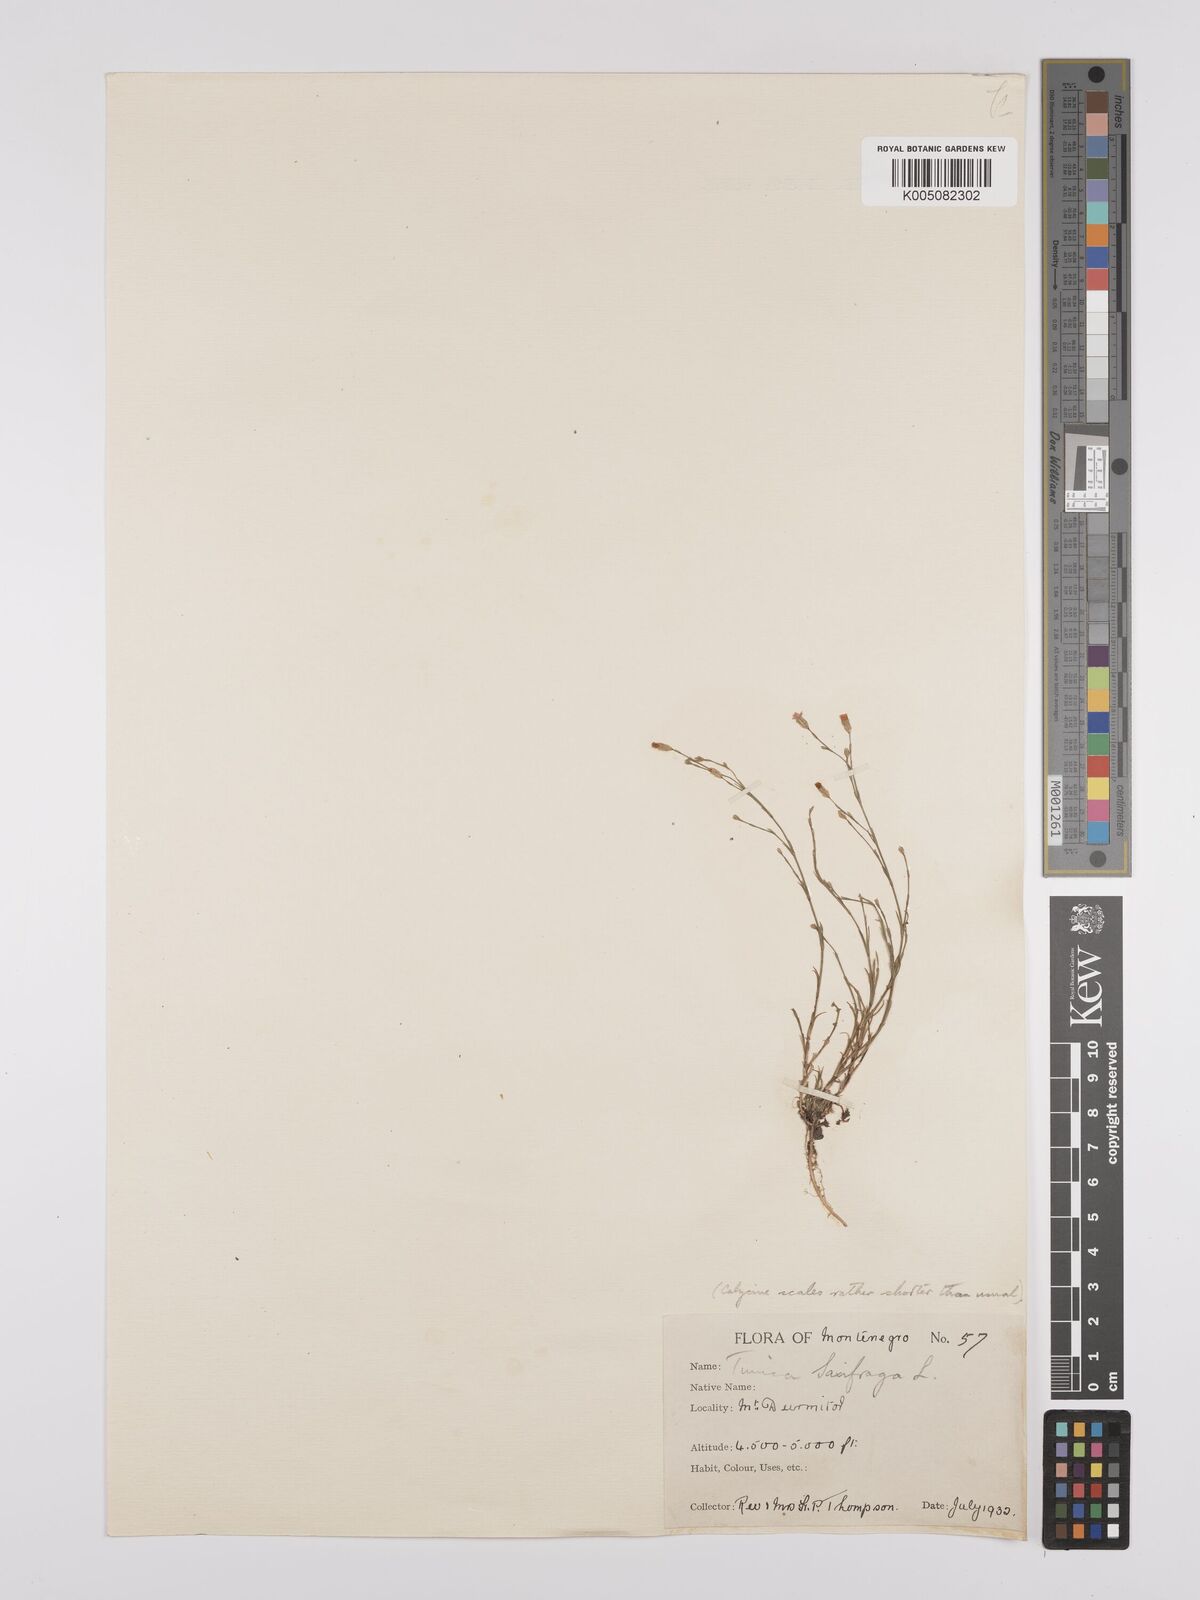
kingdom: Plantae
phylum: Tracheophyta
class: Magnoliopsida
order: Caryophyllales
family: Caryophyllaceae
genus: Petrorhagia
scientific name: Petrorhagia saxifraga
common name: Tunicflower
